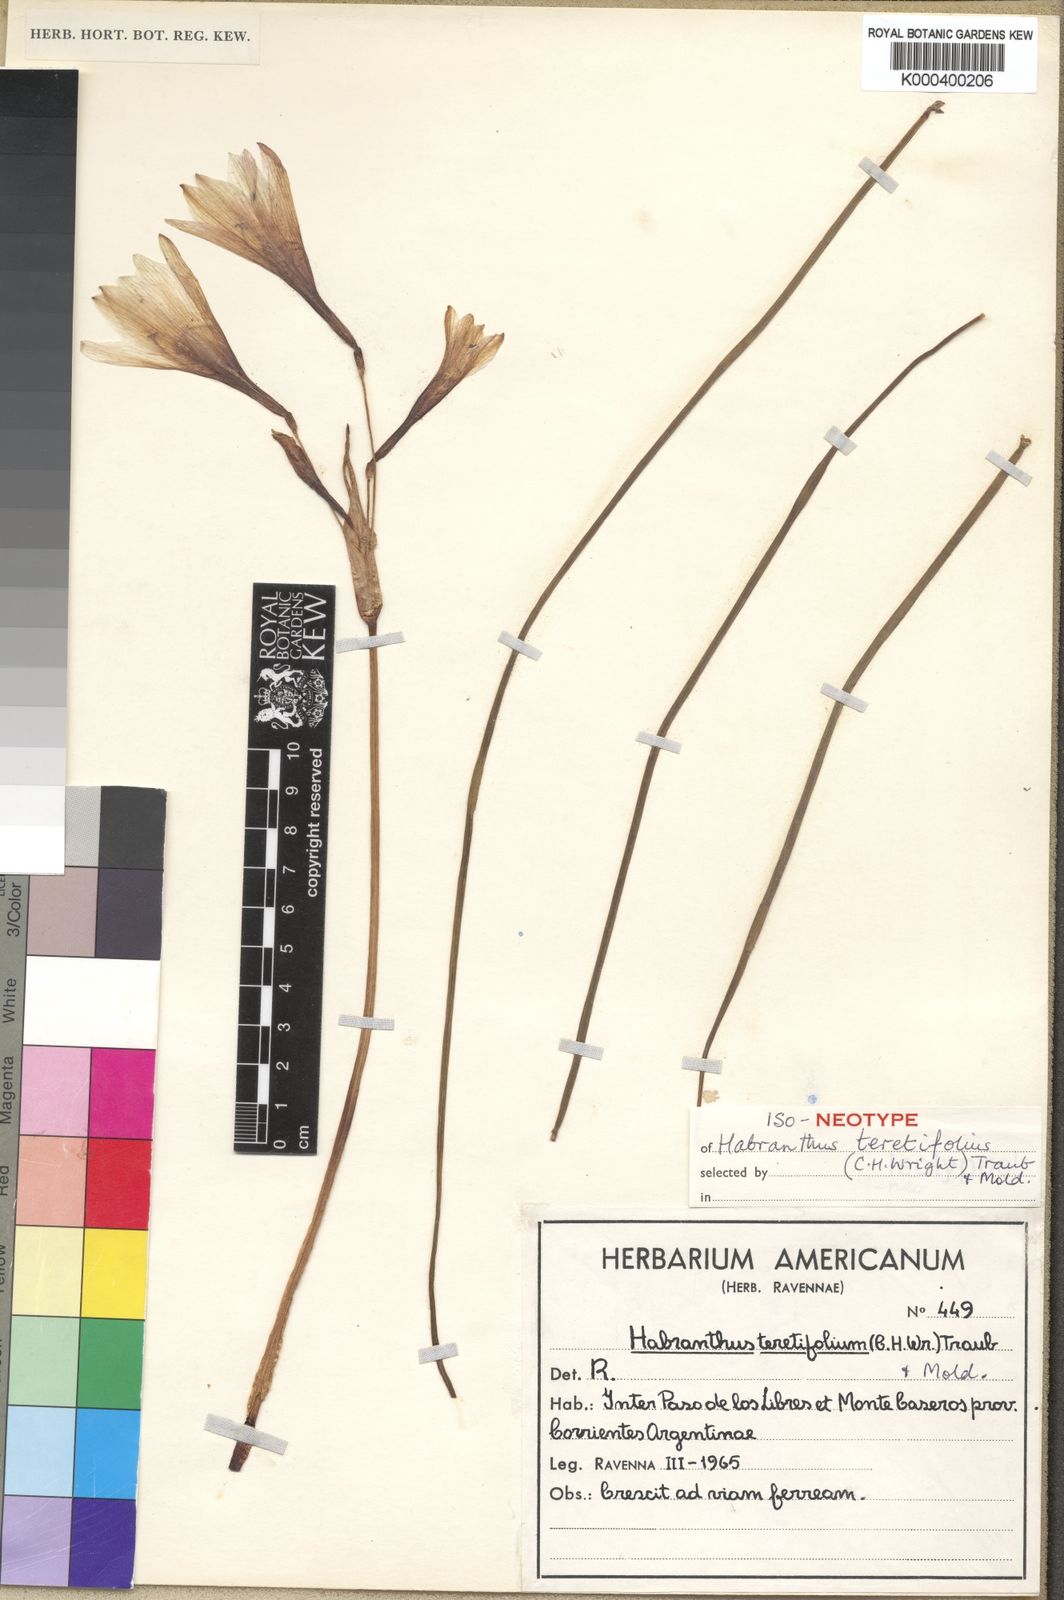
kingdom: Plantae
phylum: Tracheophyta
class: Liliopsida
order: Asparagales
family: Amaryllidaceae
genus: Zephyranthes
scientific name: Zephyranthes pedunculosa
